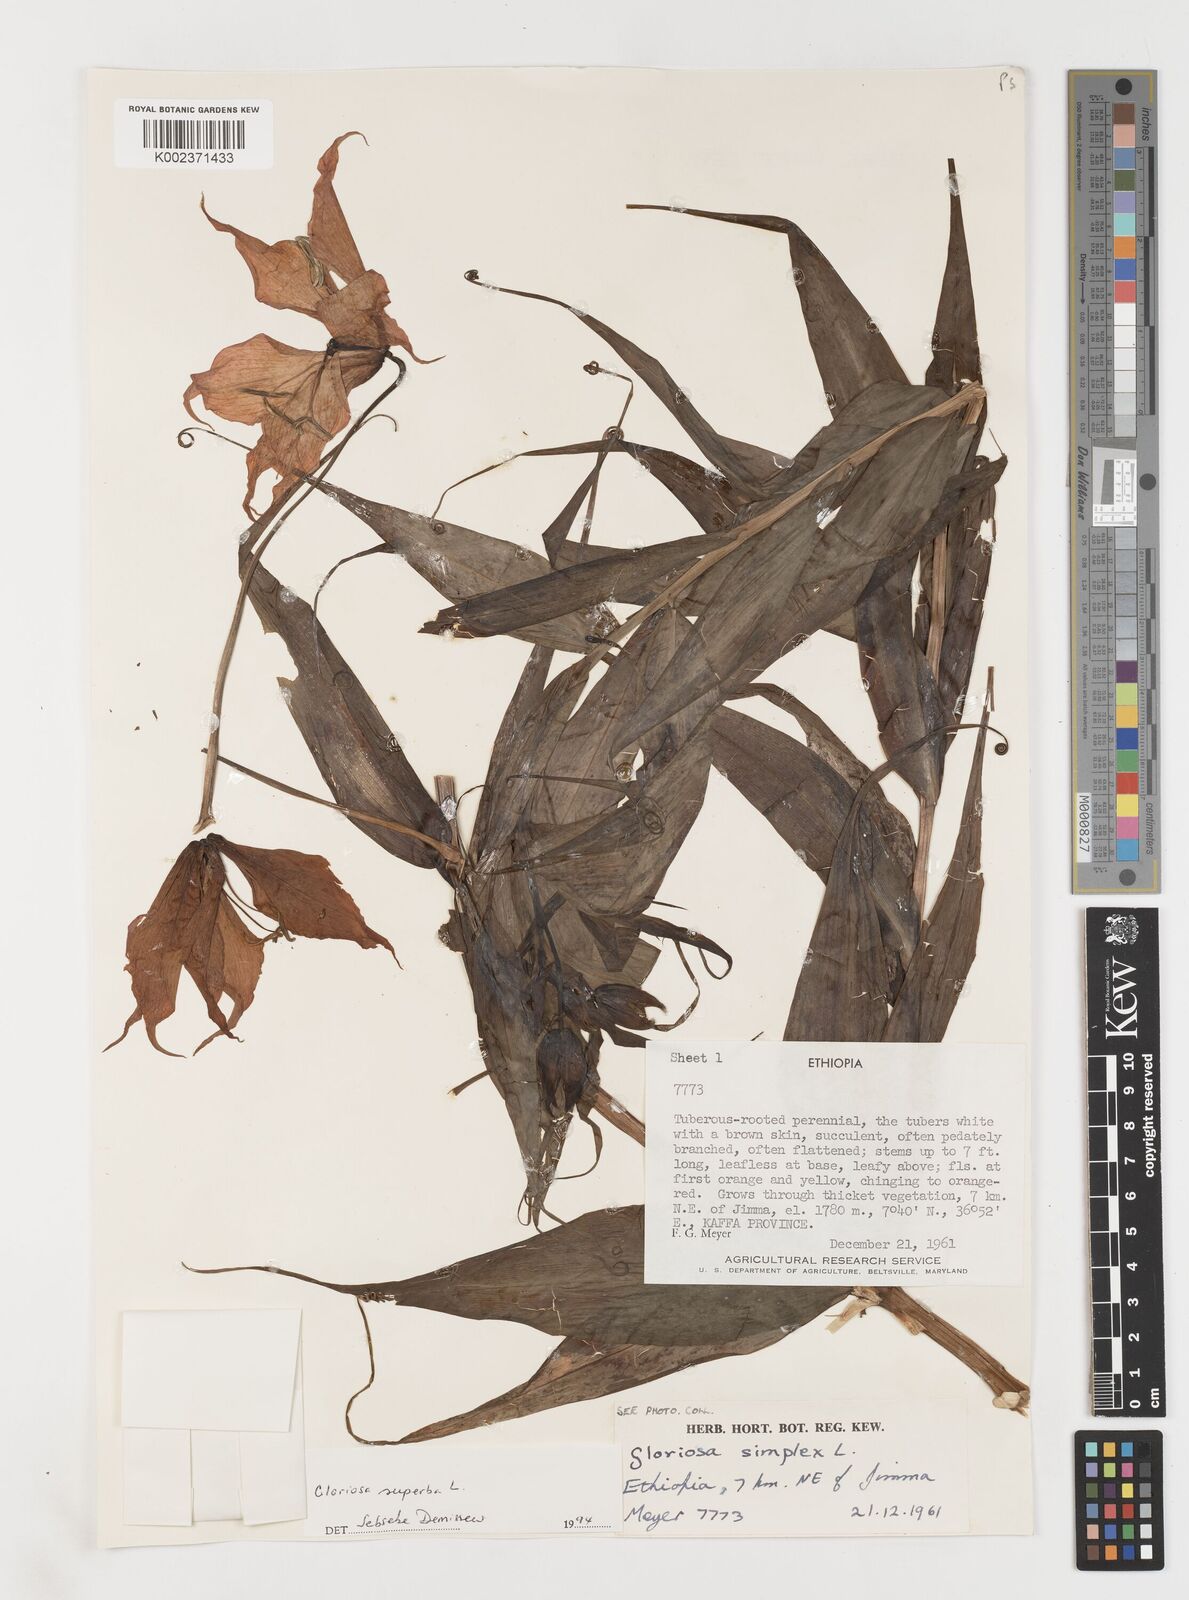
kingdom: Plantae
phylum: Tracheophyta
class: Liliopsida
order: Liliales
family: Colchicaceae
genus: Gloriosa
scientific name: Gloriosa simplex
